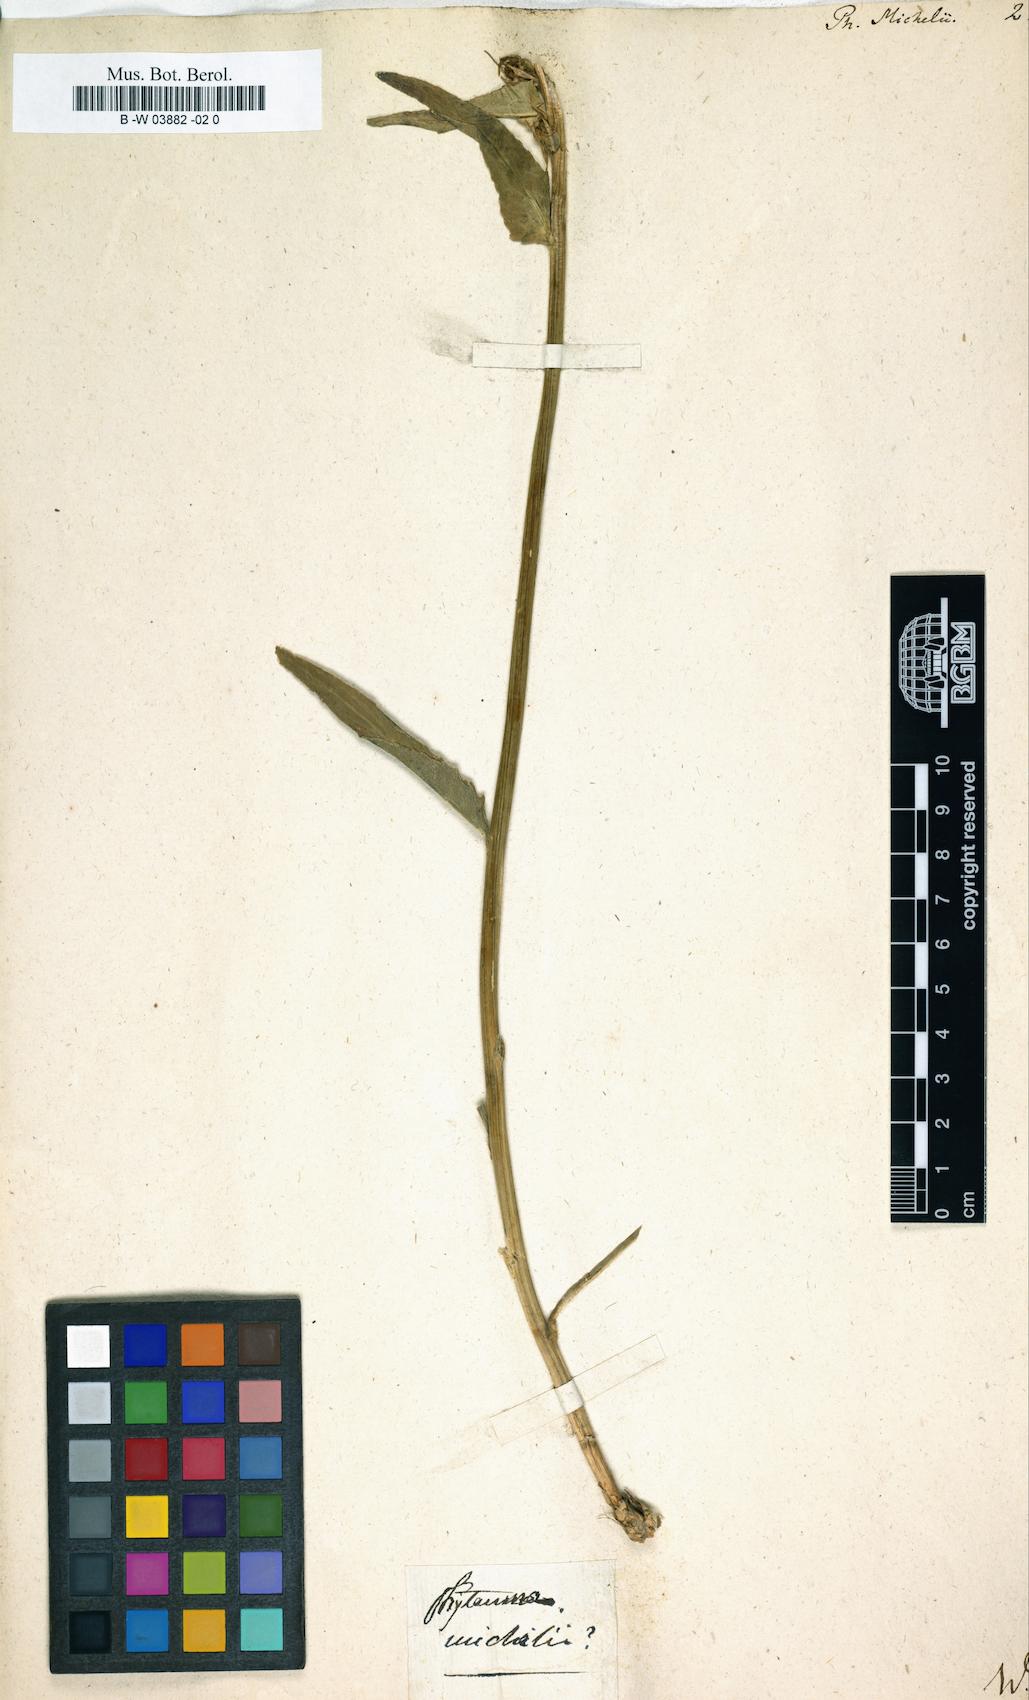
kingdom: Plantae
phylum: Tracheophyta
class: Magnoliopsida
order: Asterales
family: Campanulaceae
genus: Phyteuma
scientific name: Phyteuma michelii
